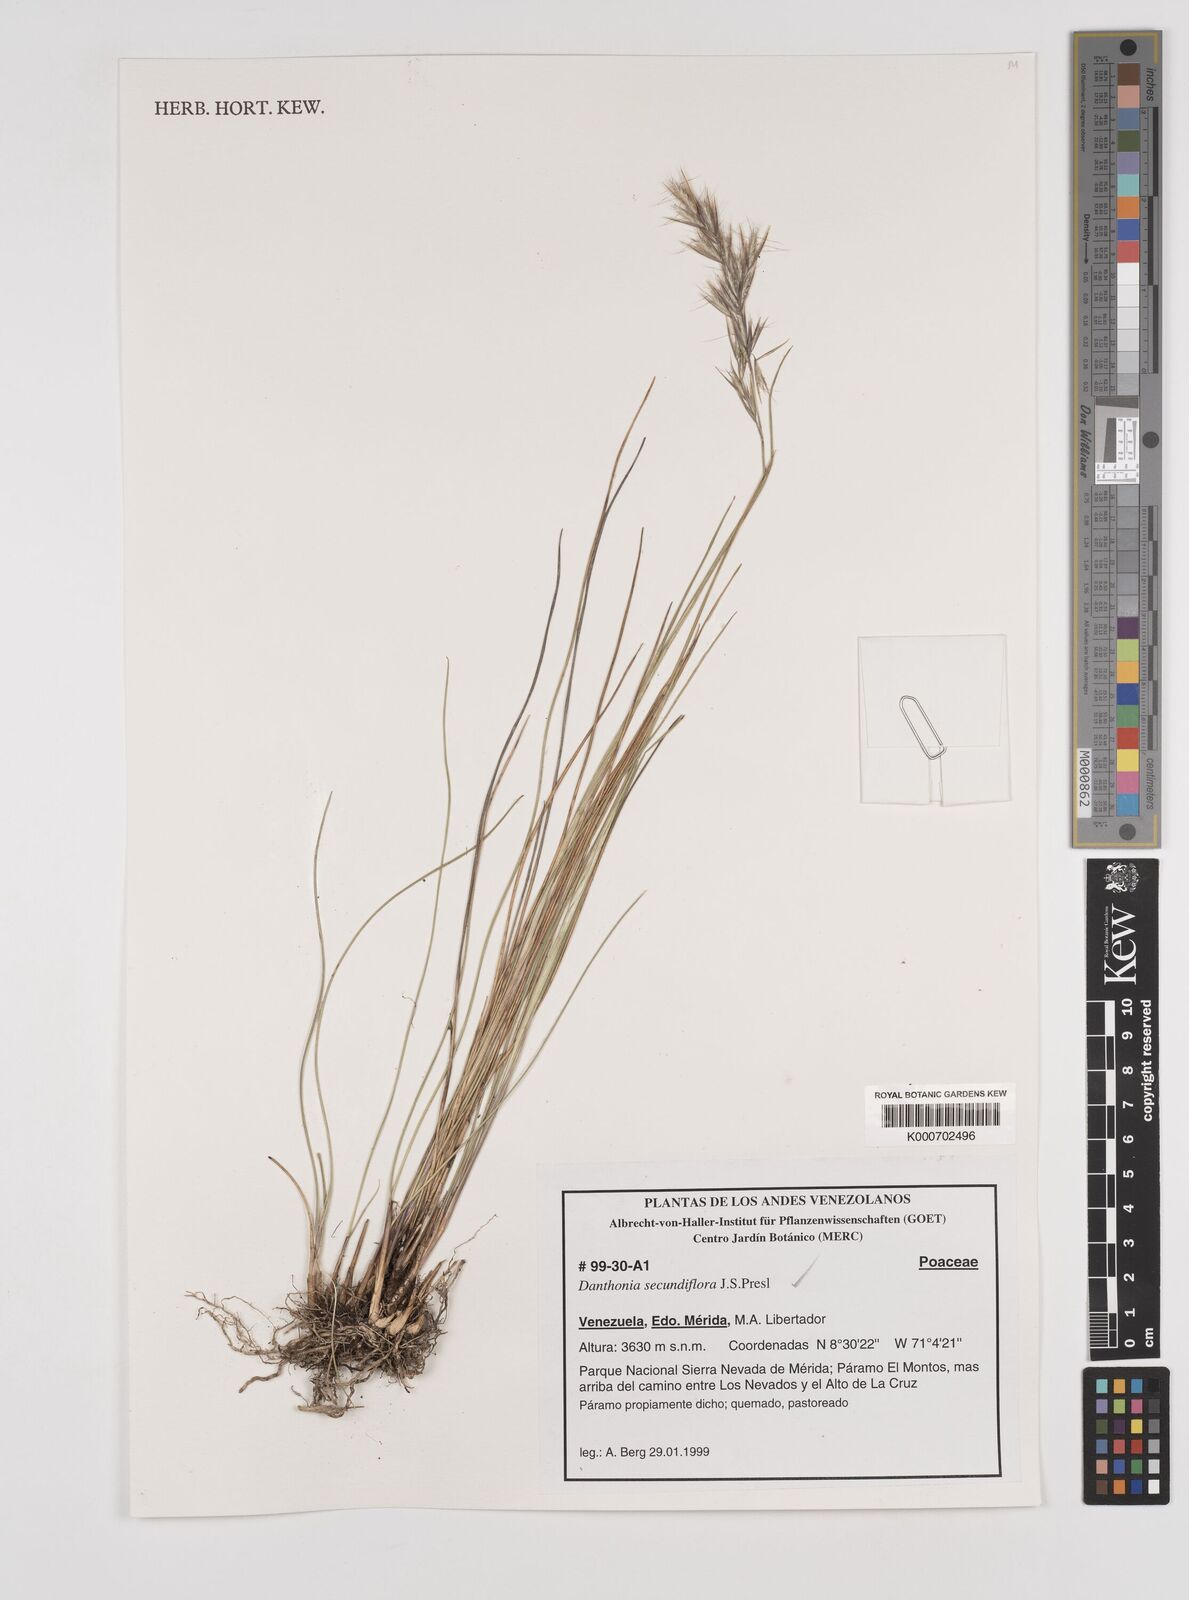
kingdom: Plantae
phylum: Tracheophyta
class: Liliopsida
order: Poales
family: Poaceae
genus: Danthonia
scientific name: Danthonia secundiflora
